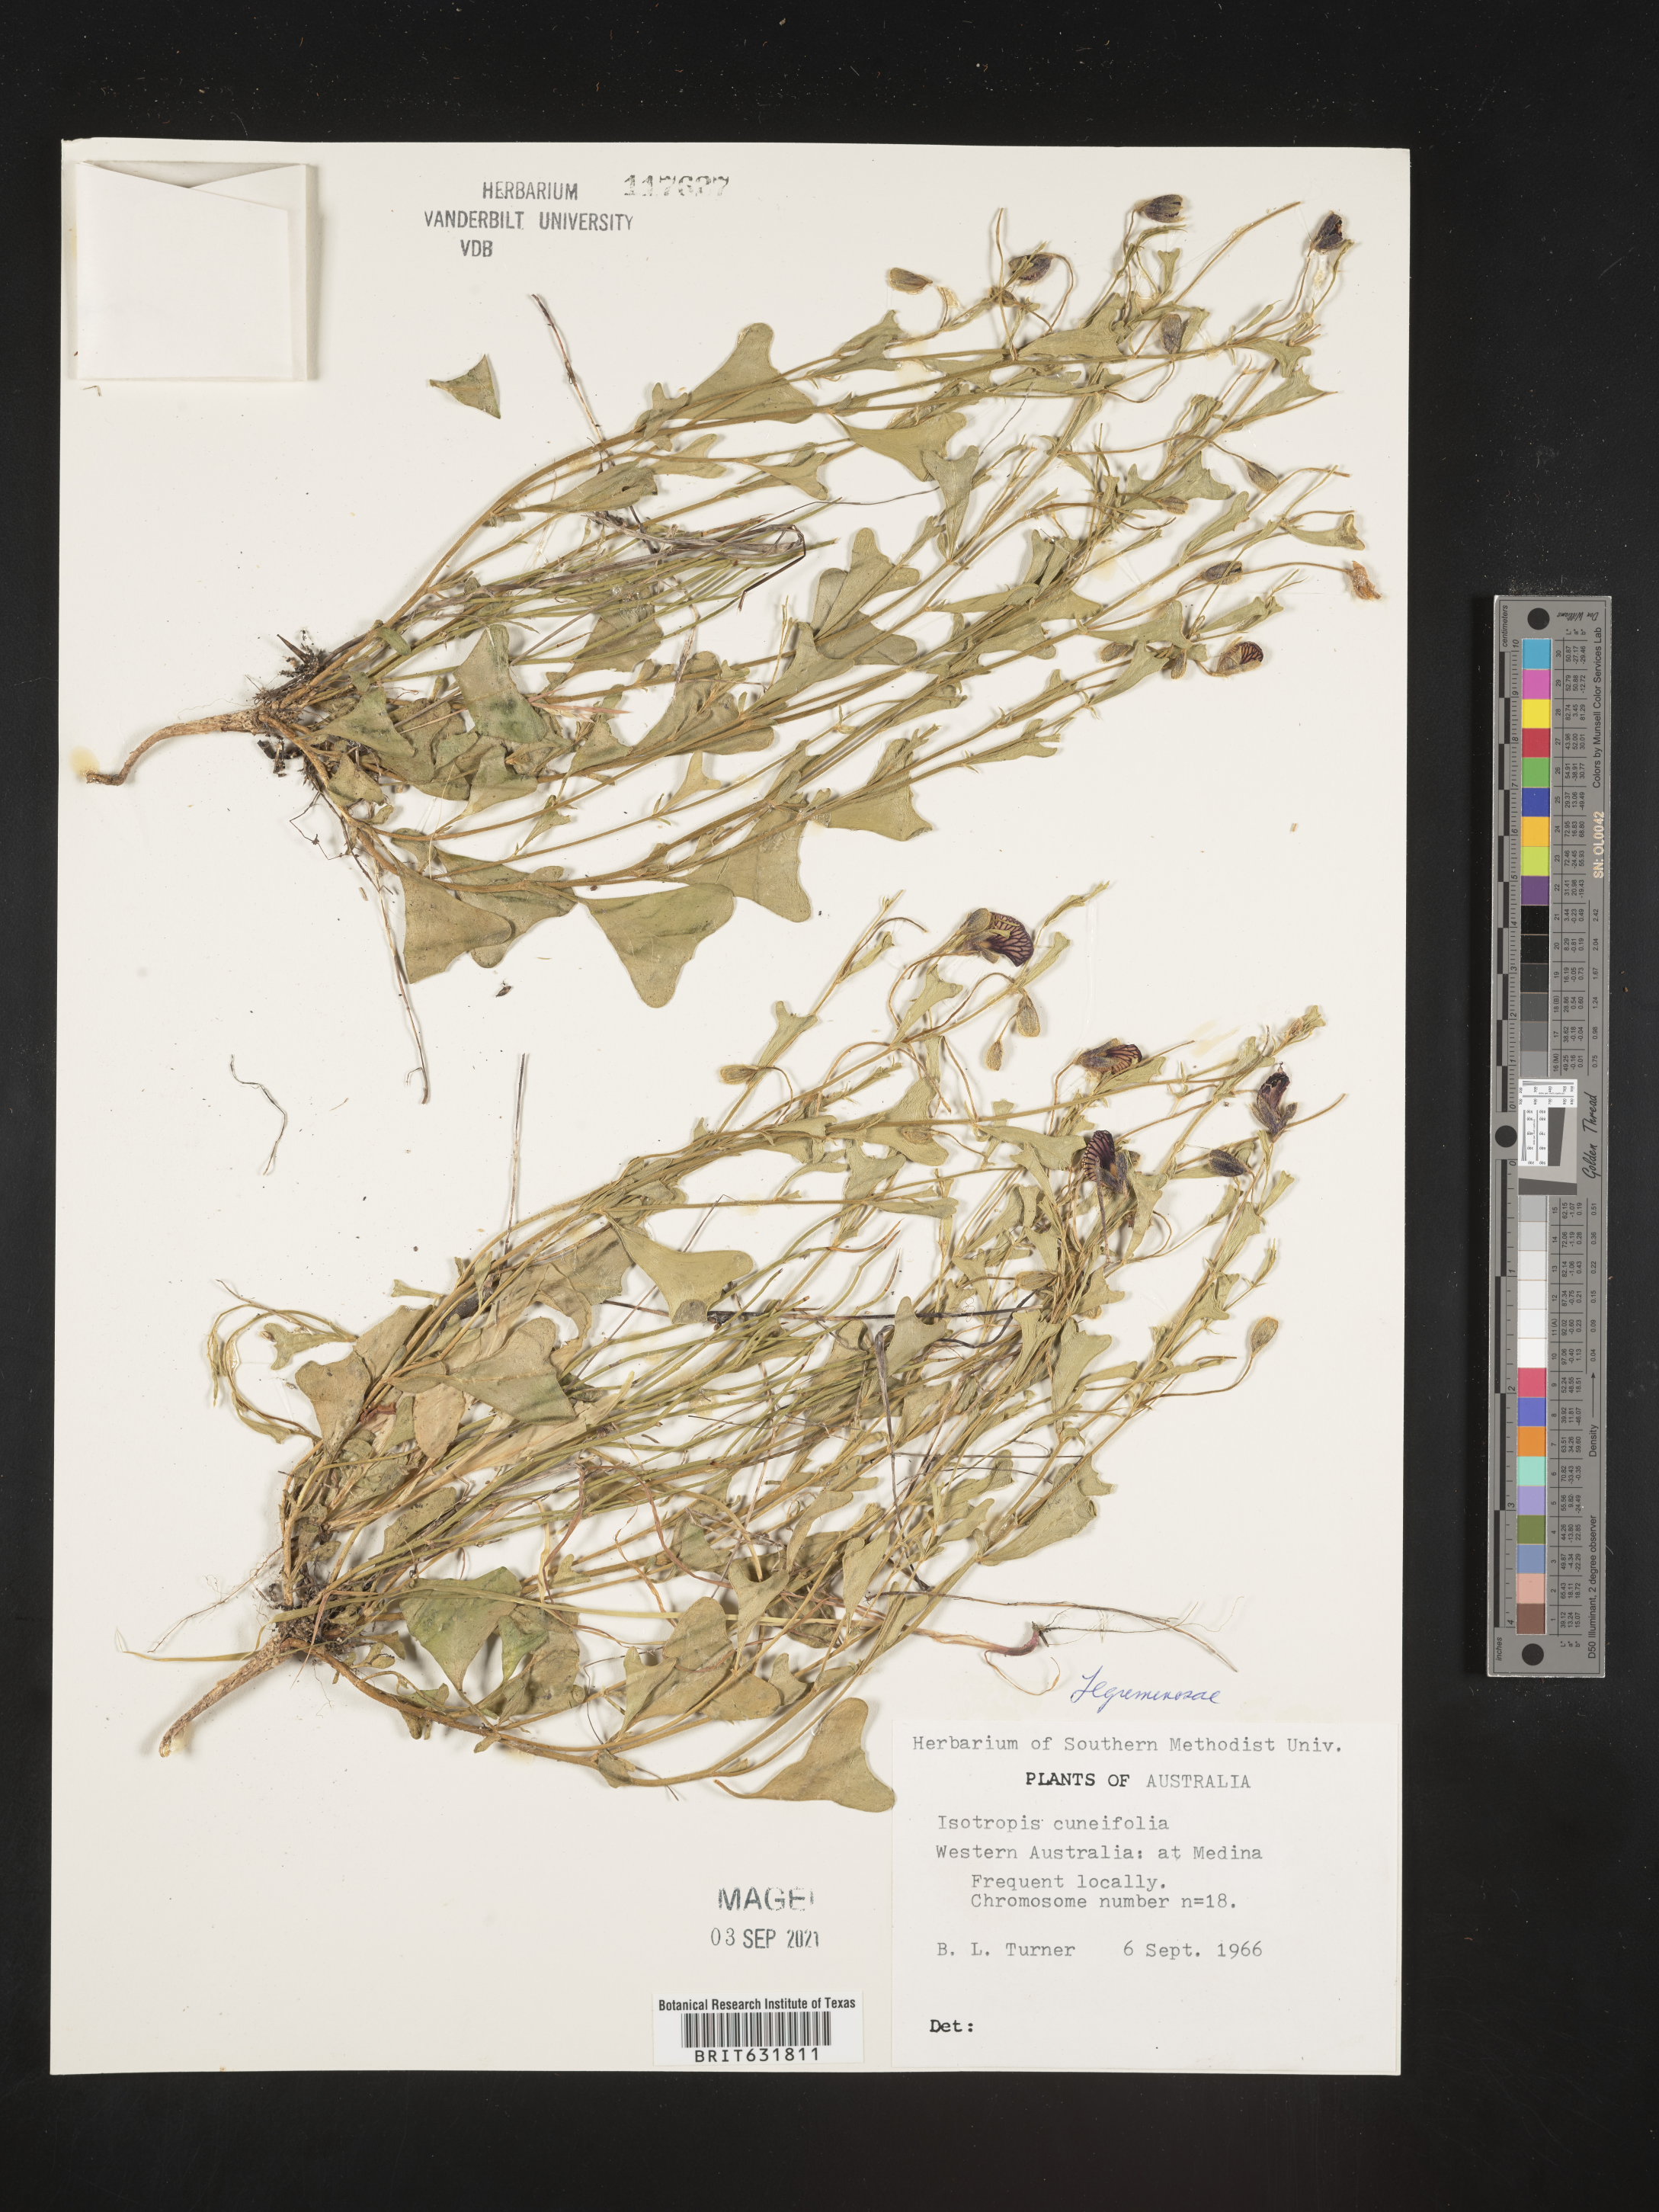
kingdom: Plantae
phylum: Tracheophyta
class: Magnoliopsida
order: Fabales
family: Fabaceae
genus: Isotropis
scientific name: Isotropis
